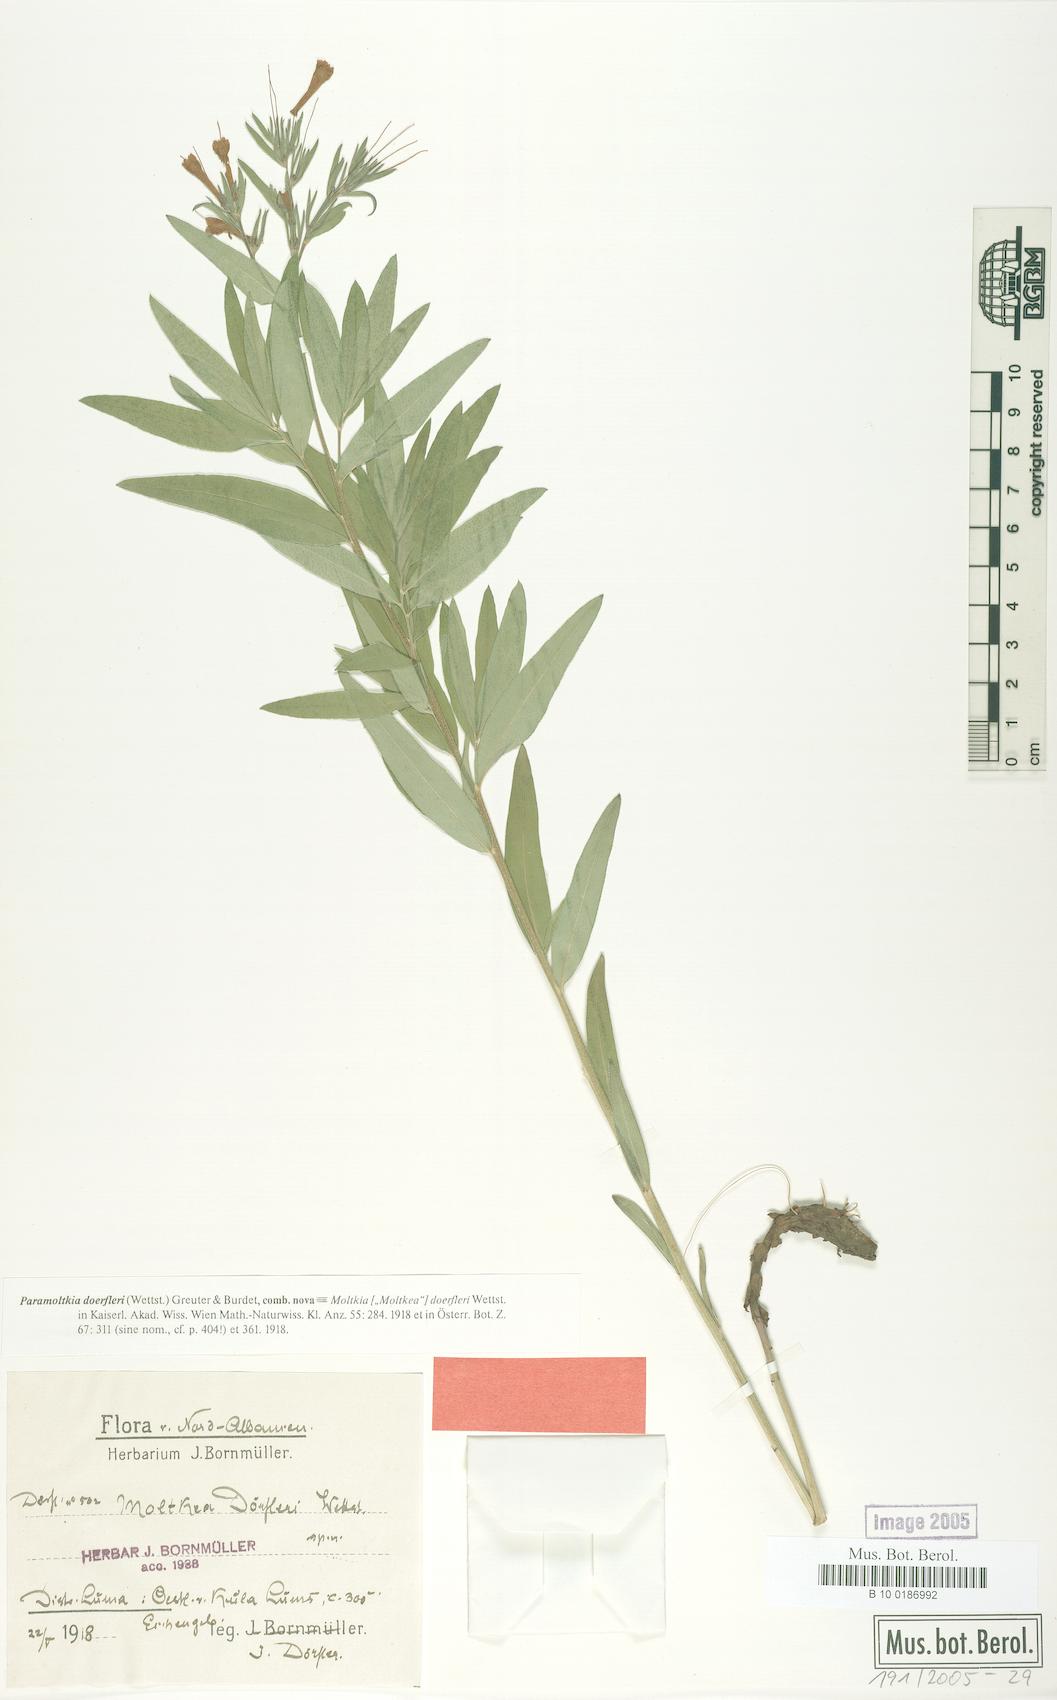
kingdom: Plantae
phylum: Tracheophyta
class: Magnoliopsida
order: Boraginales
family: Boraginaceae
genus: Paramoltkia
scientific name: Paramoltkia doerfleri
